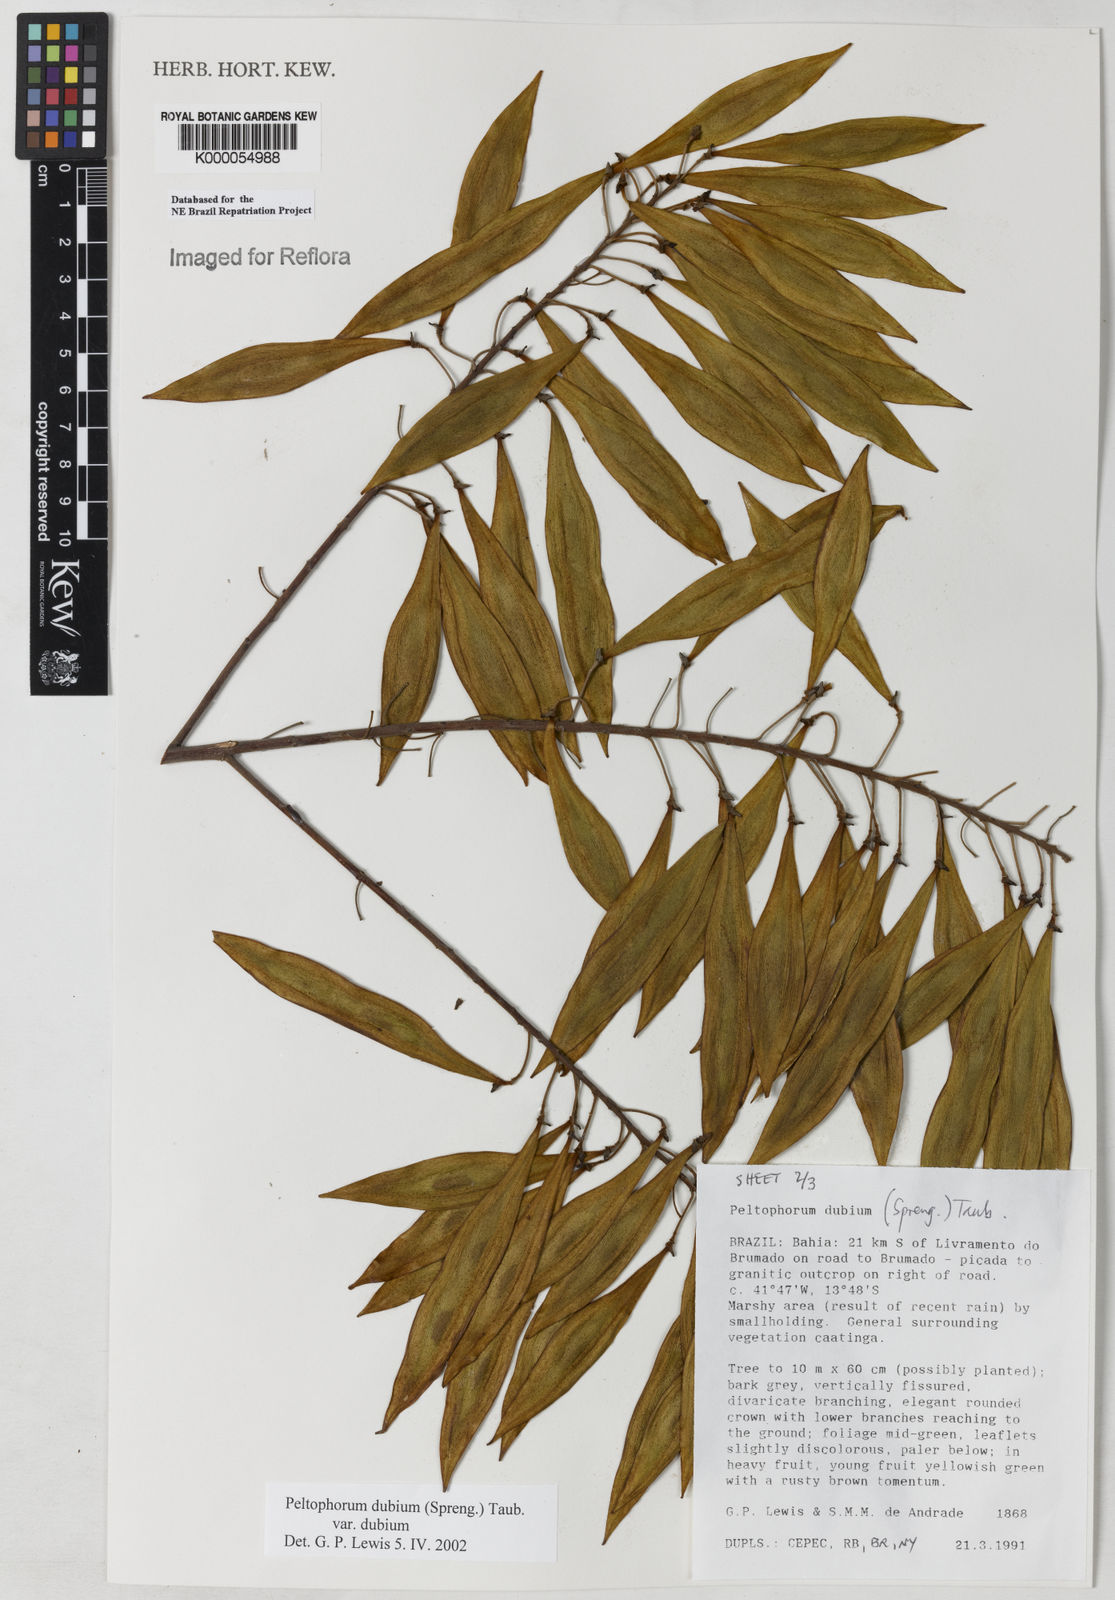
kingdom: Plantae
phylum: Tracheophyta
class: Magnoliopsida
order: Fabales
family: Fabaceae
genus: Peltophorum
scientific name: Peltophorum dubium
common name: Horsebush
